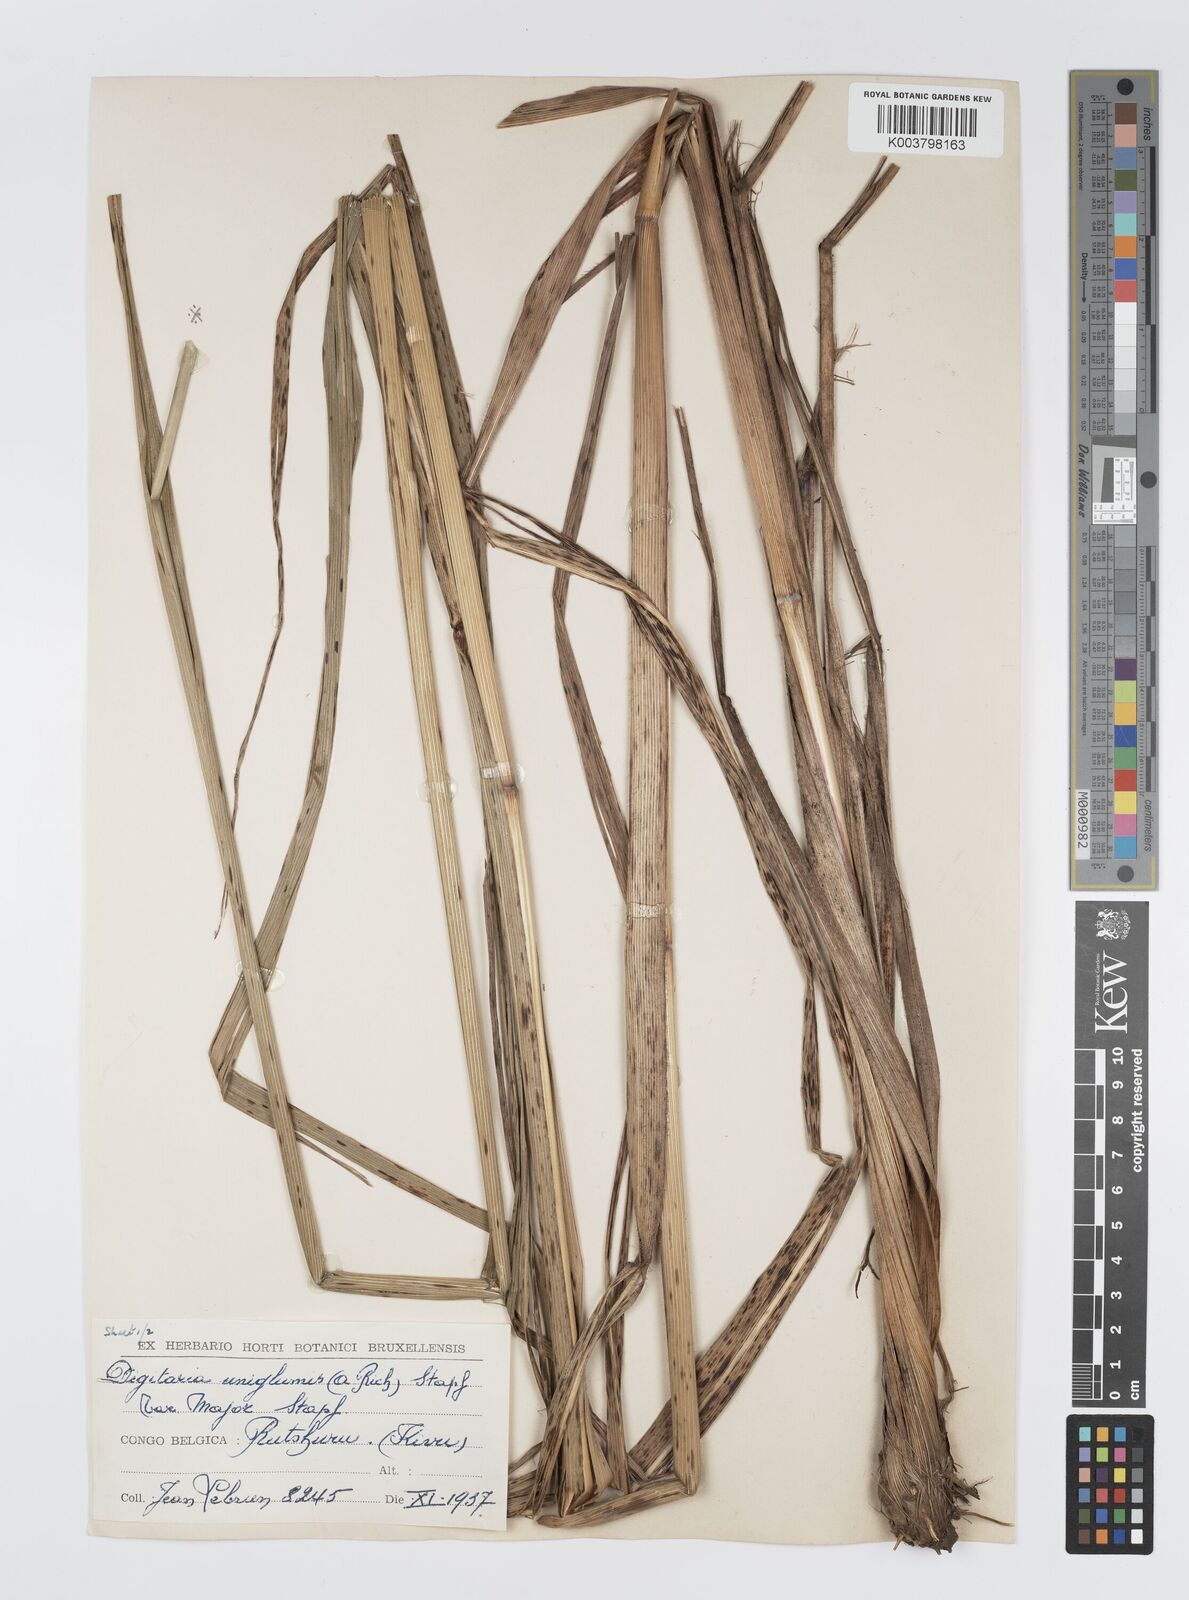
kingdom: Plantae
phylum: Tracheophyta
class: Liliopsida
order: Poales
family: Poaceae
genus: Digitaria
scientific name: Digitaria diagonalis
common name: Brown-seed finger grass
